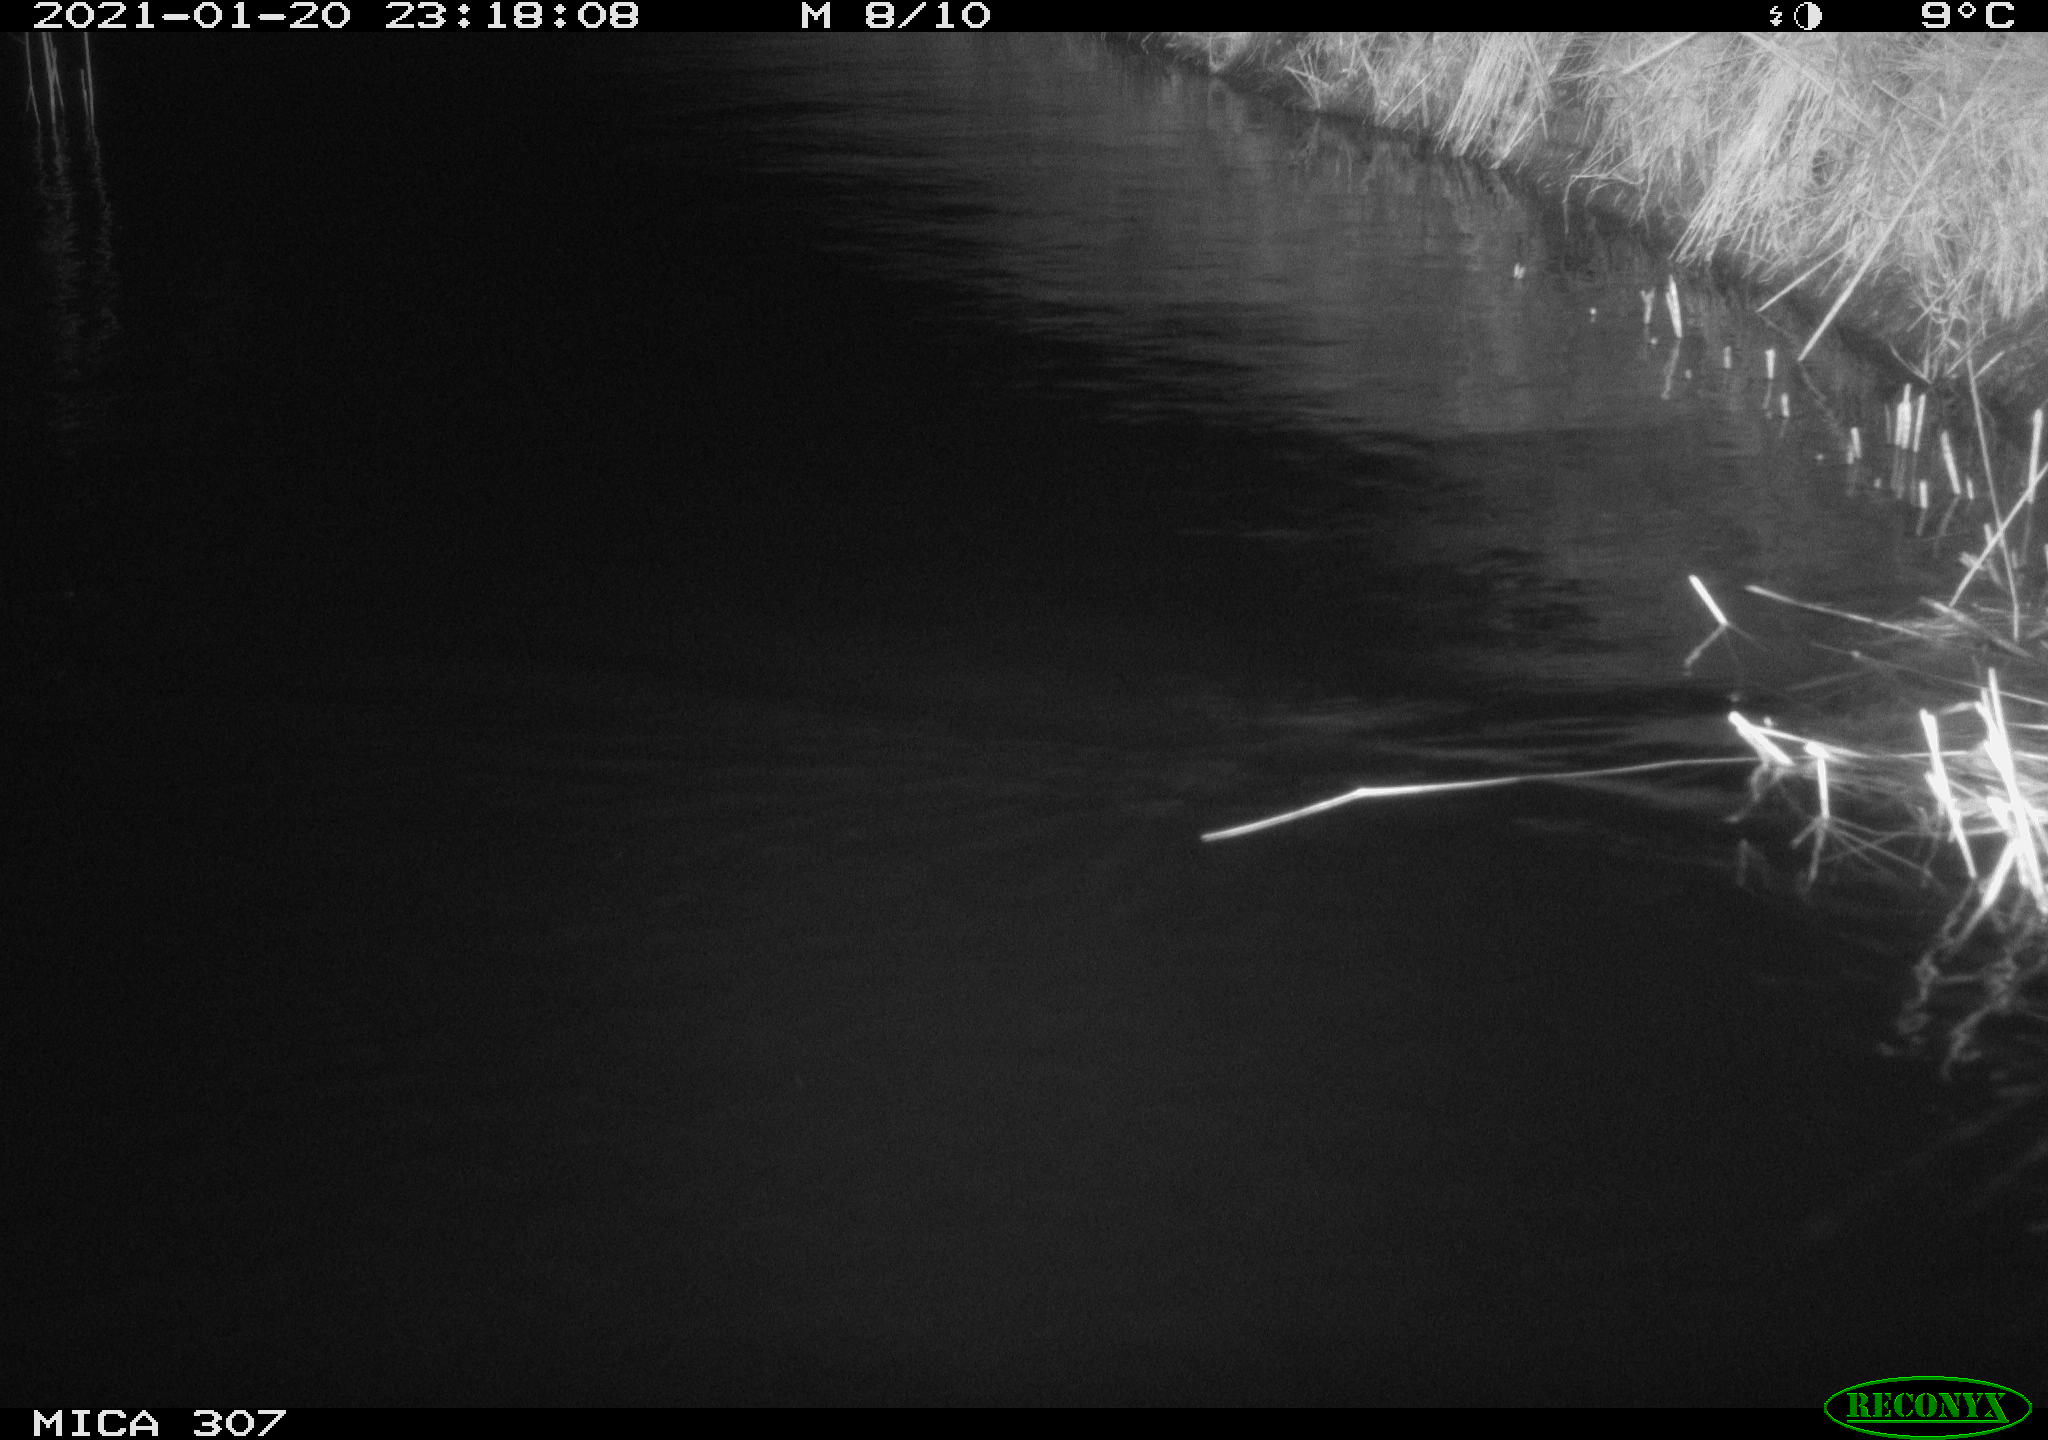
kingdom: Animalia
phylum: Chordata
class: Mammalia
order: Rodentia
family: Muridae
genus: Rattus
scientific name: Rattus norvegicus
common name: Brown rat
